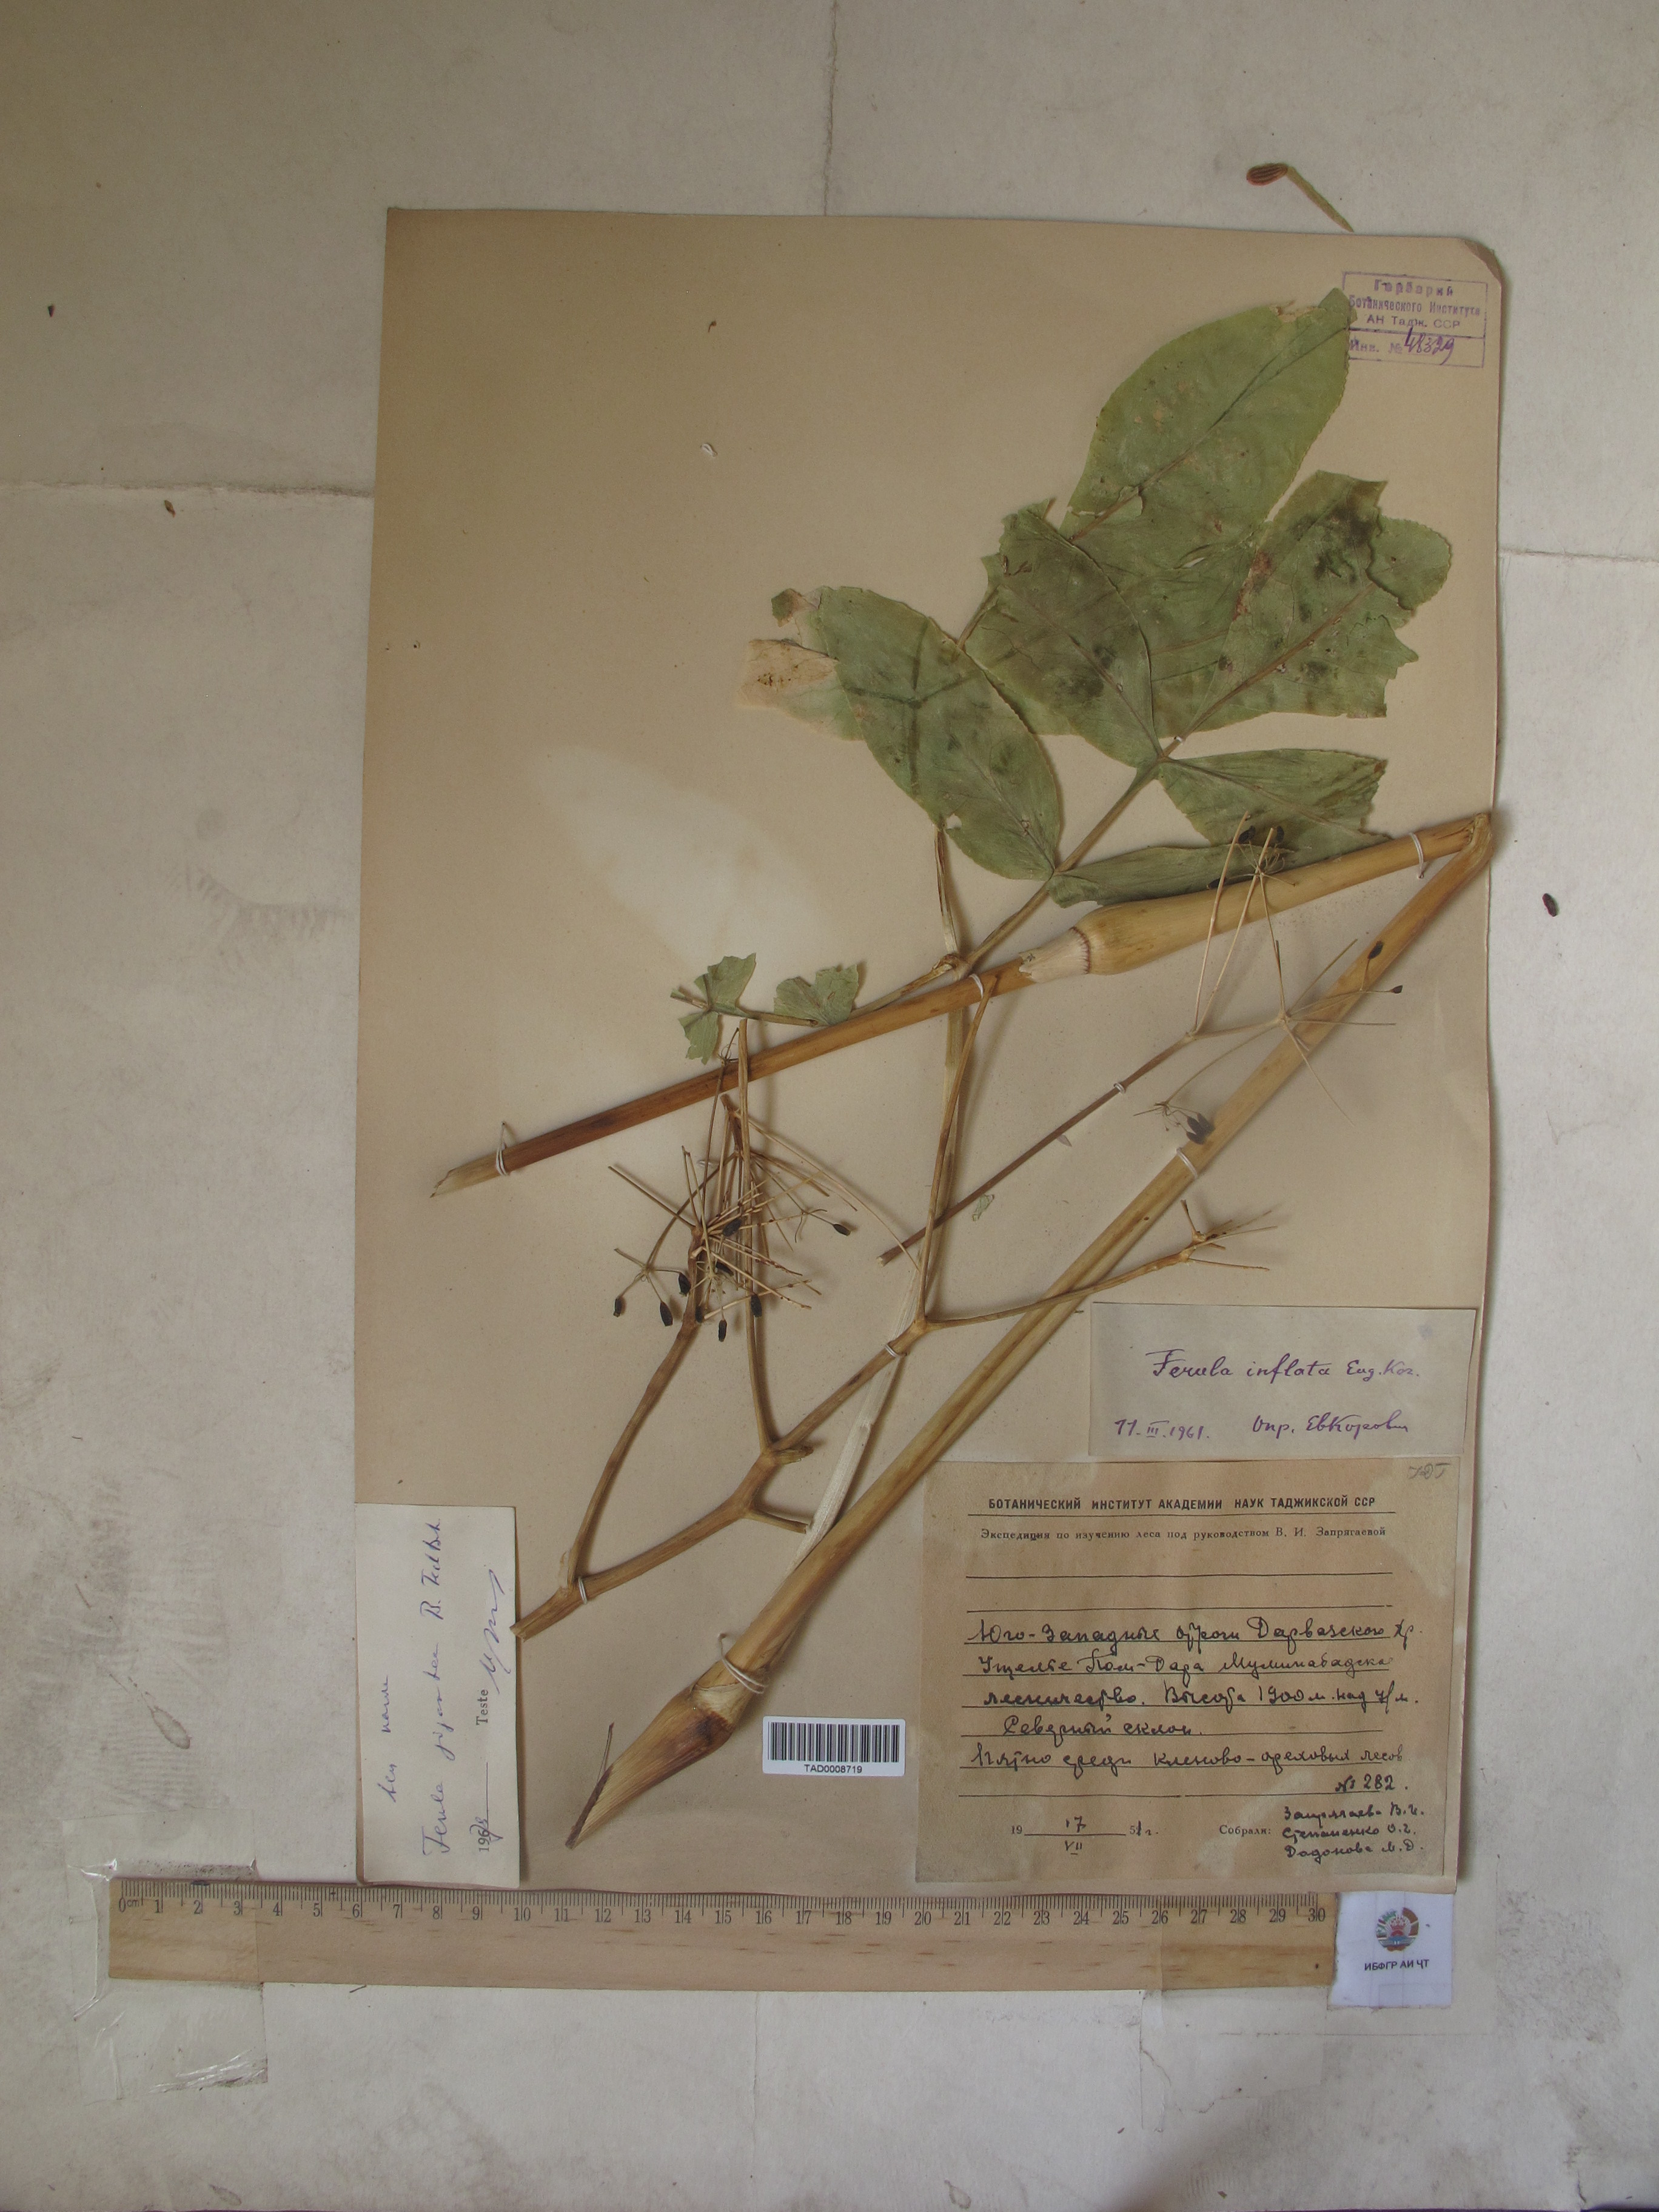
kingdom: Plantae
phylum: Tracheophyta
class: Magnoliopsida
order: Apiales
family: Apiaceae
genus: Ferula
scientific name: Ferula gigantea
